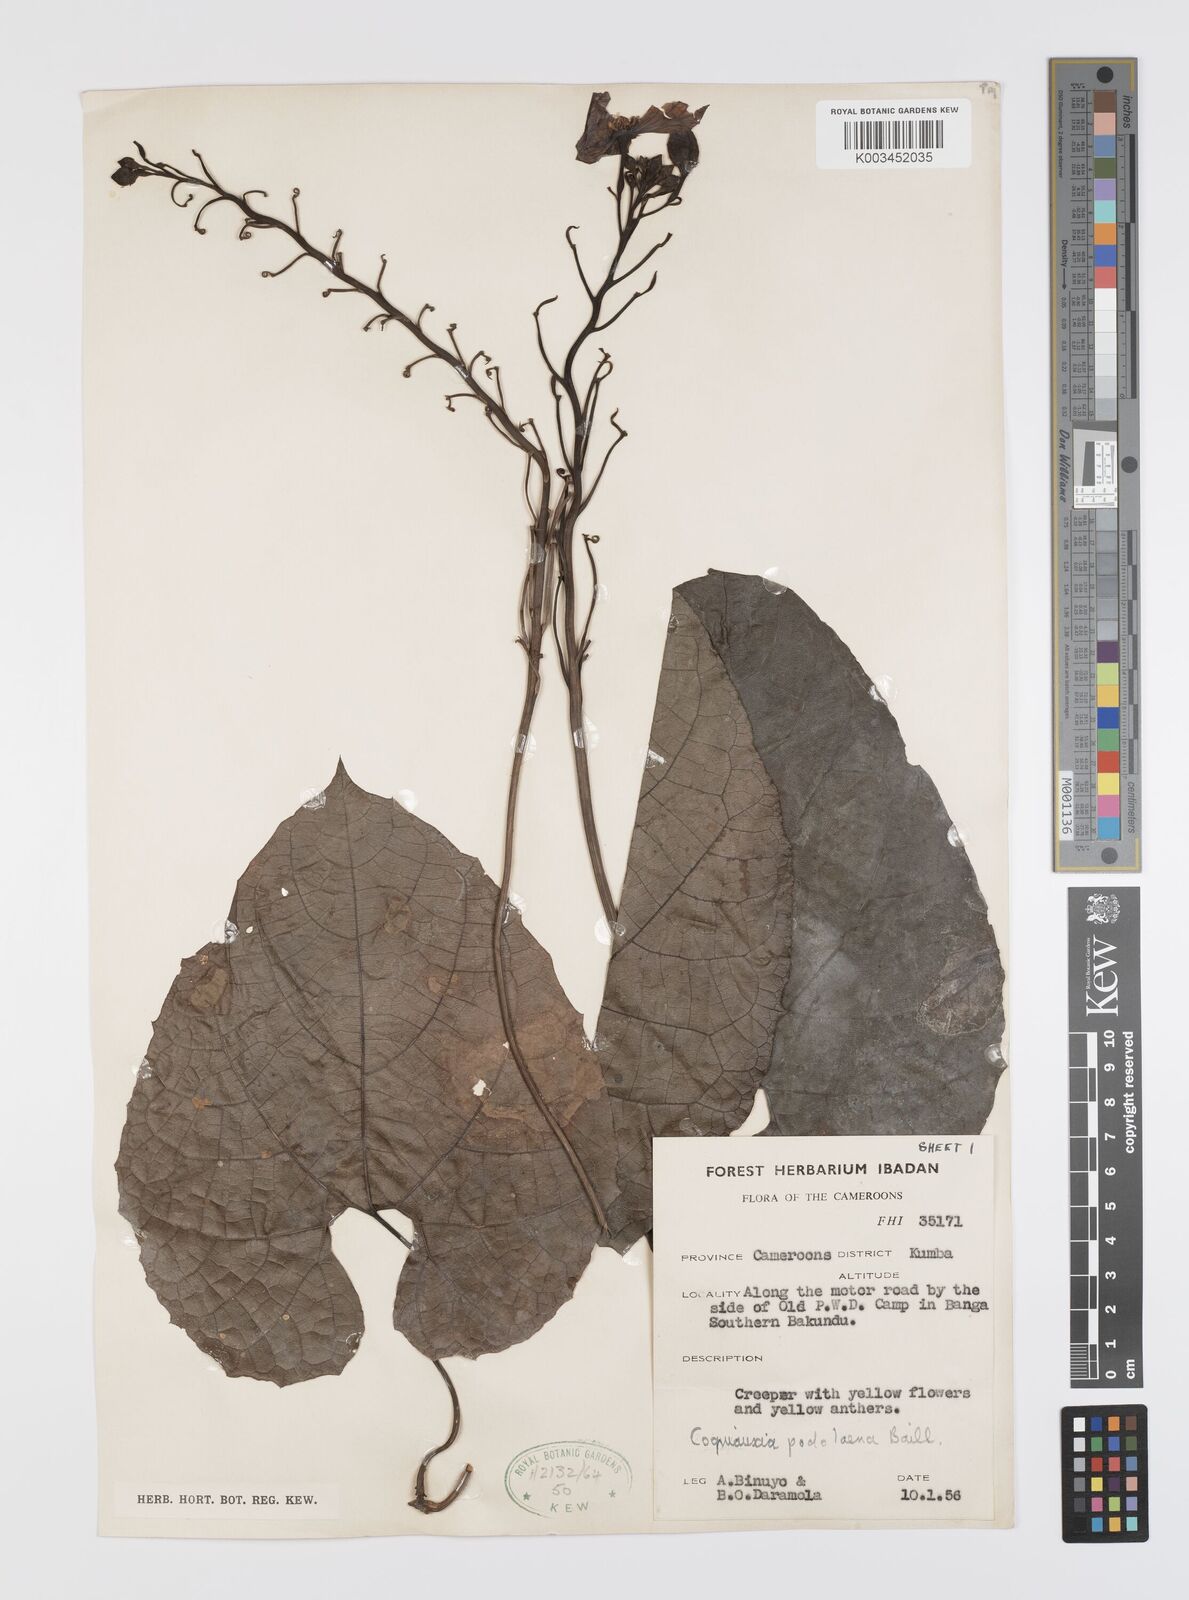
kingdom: Plantae
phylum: Tracheophyta
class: Magnoliopsida
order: Cucurbitales
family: Cucurbitaceae
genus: Cogniauxia
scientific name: Cogniauxia podolaena
